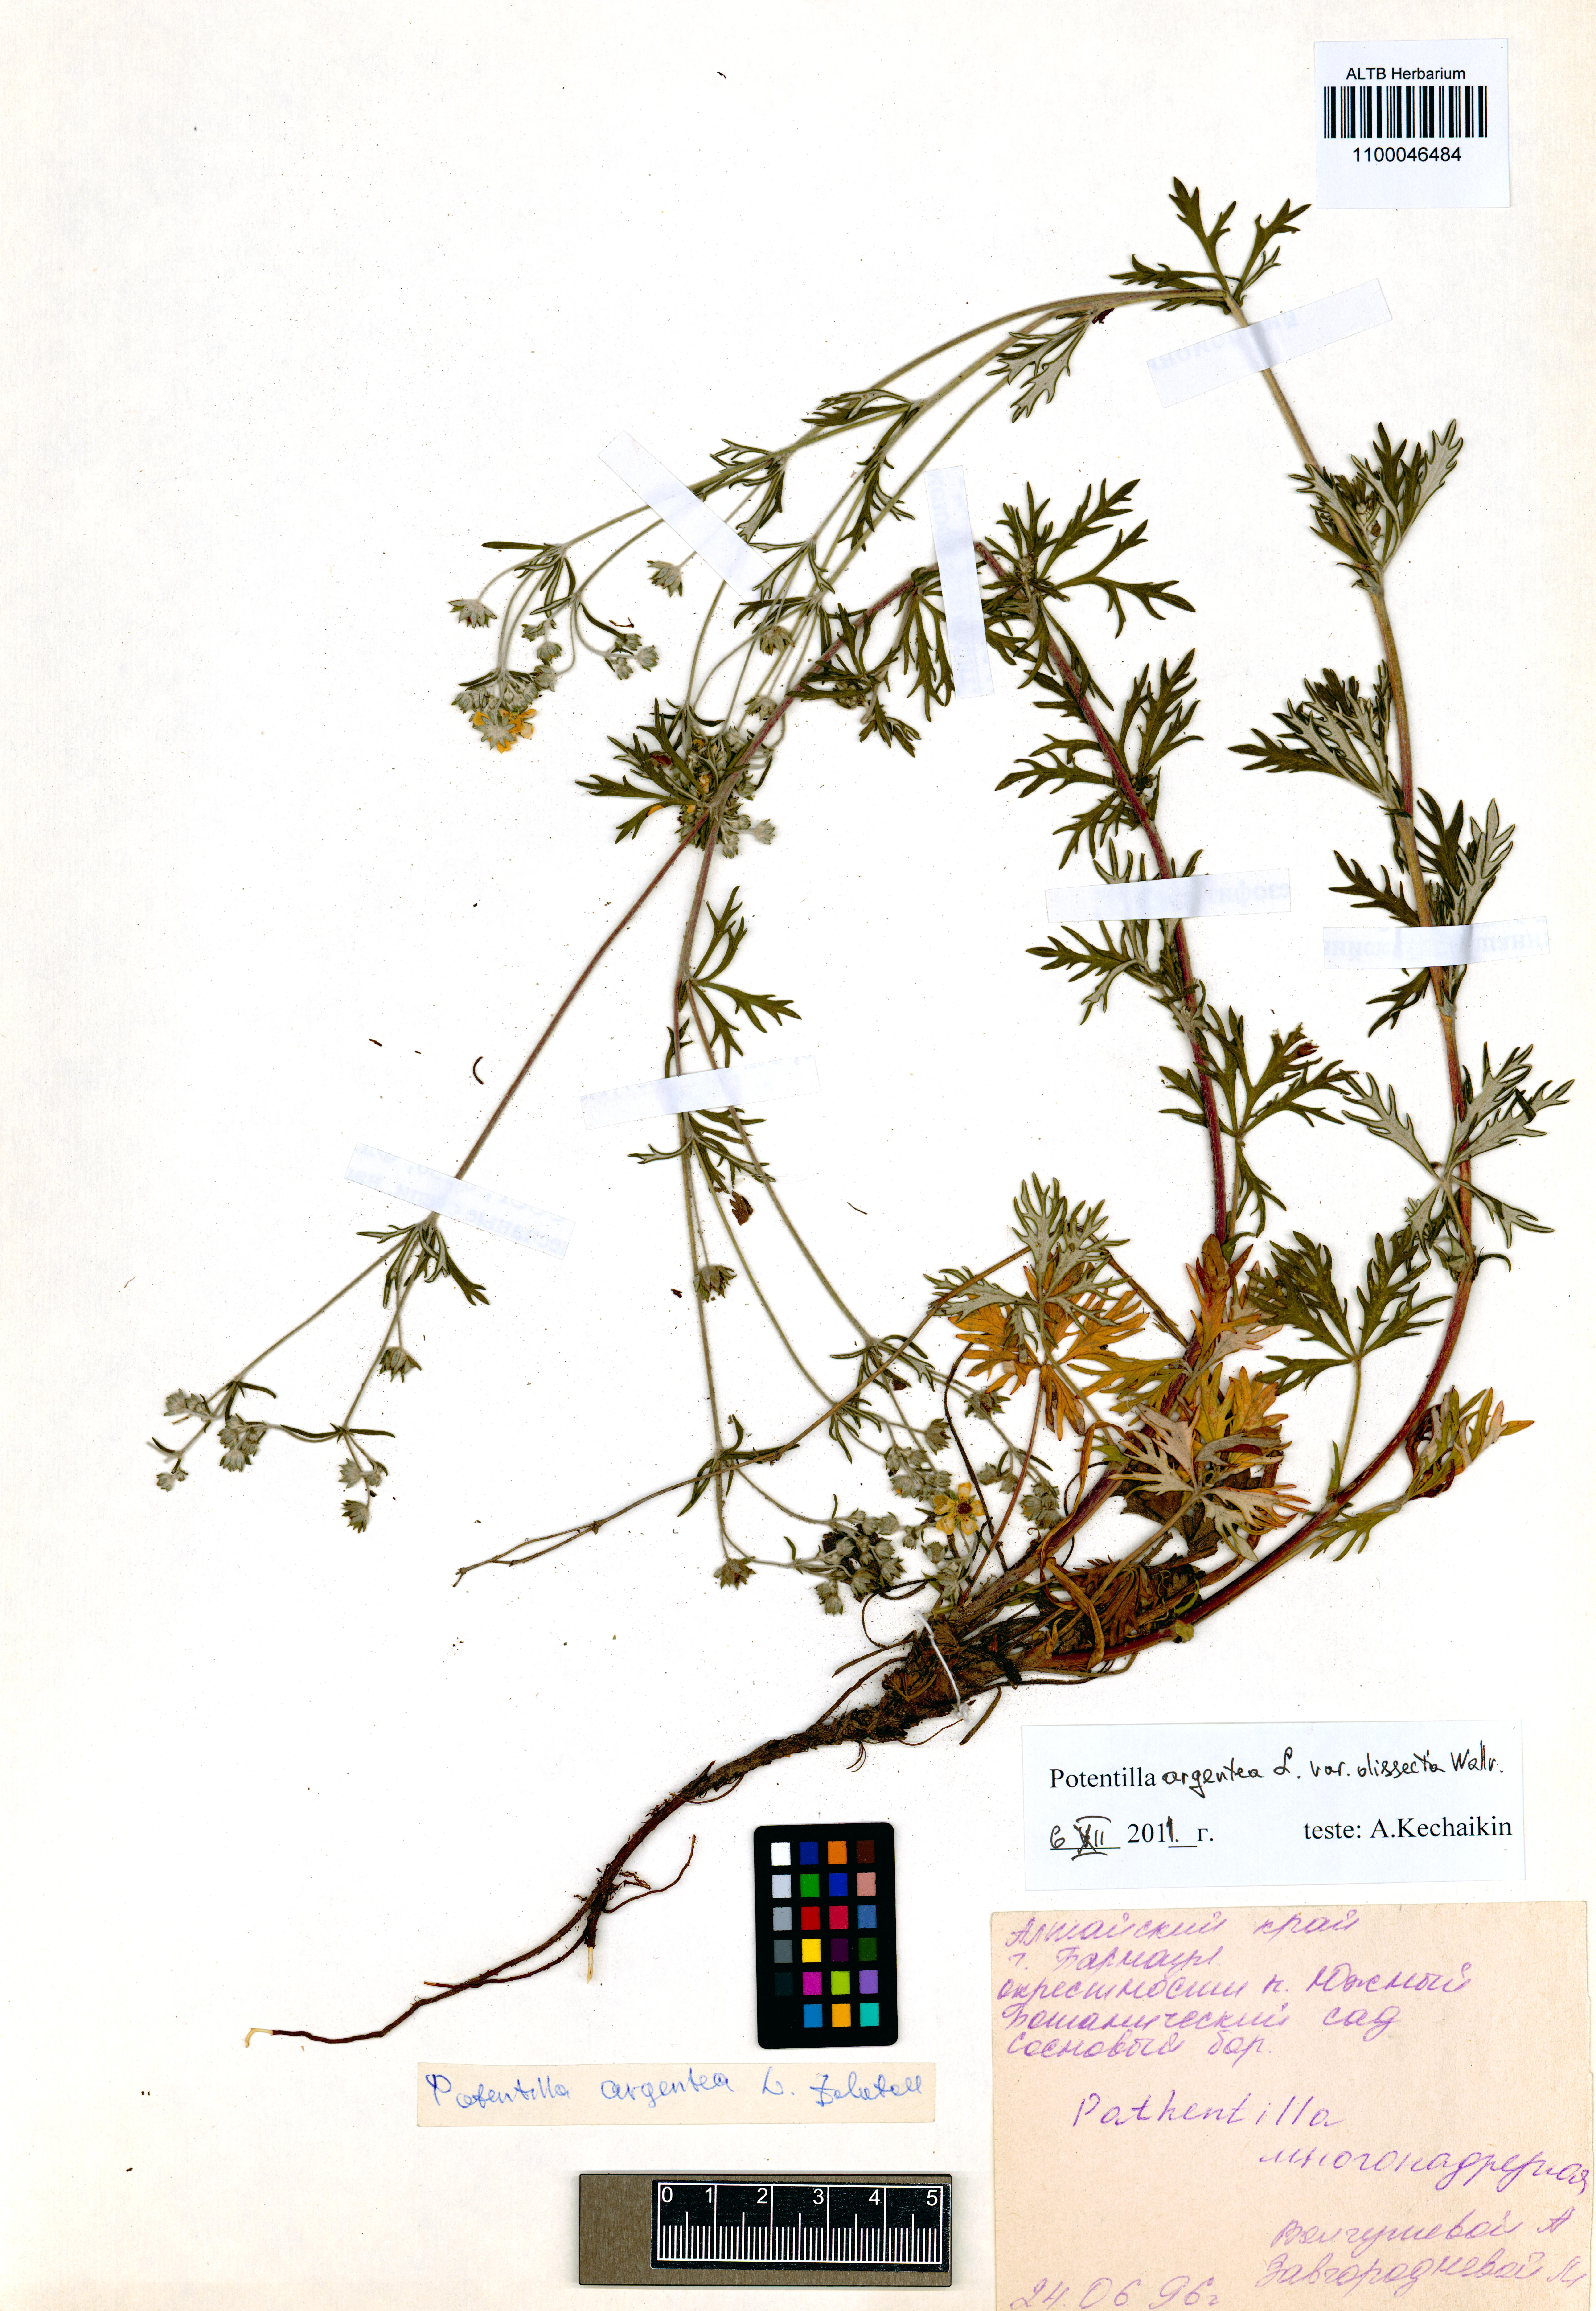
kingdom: Plantae
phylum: Tracheophyta
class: Magnoliopsida
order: Rosales
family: Rosaceae
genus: Potentilla
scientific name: Potentilla argentea
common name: Hoary cinquefoil
